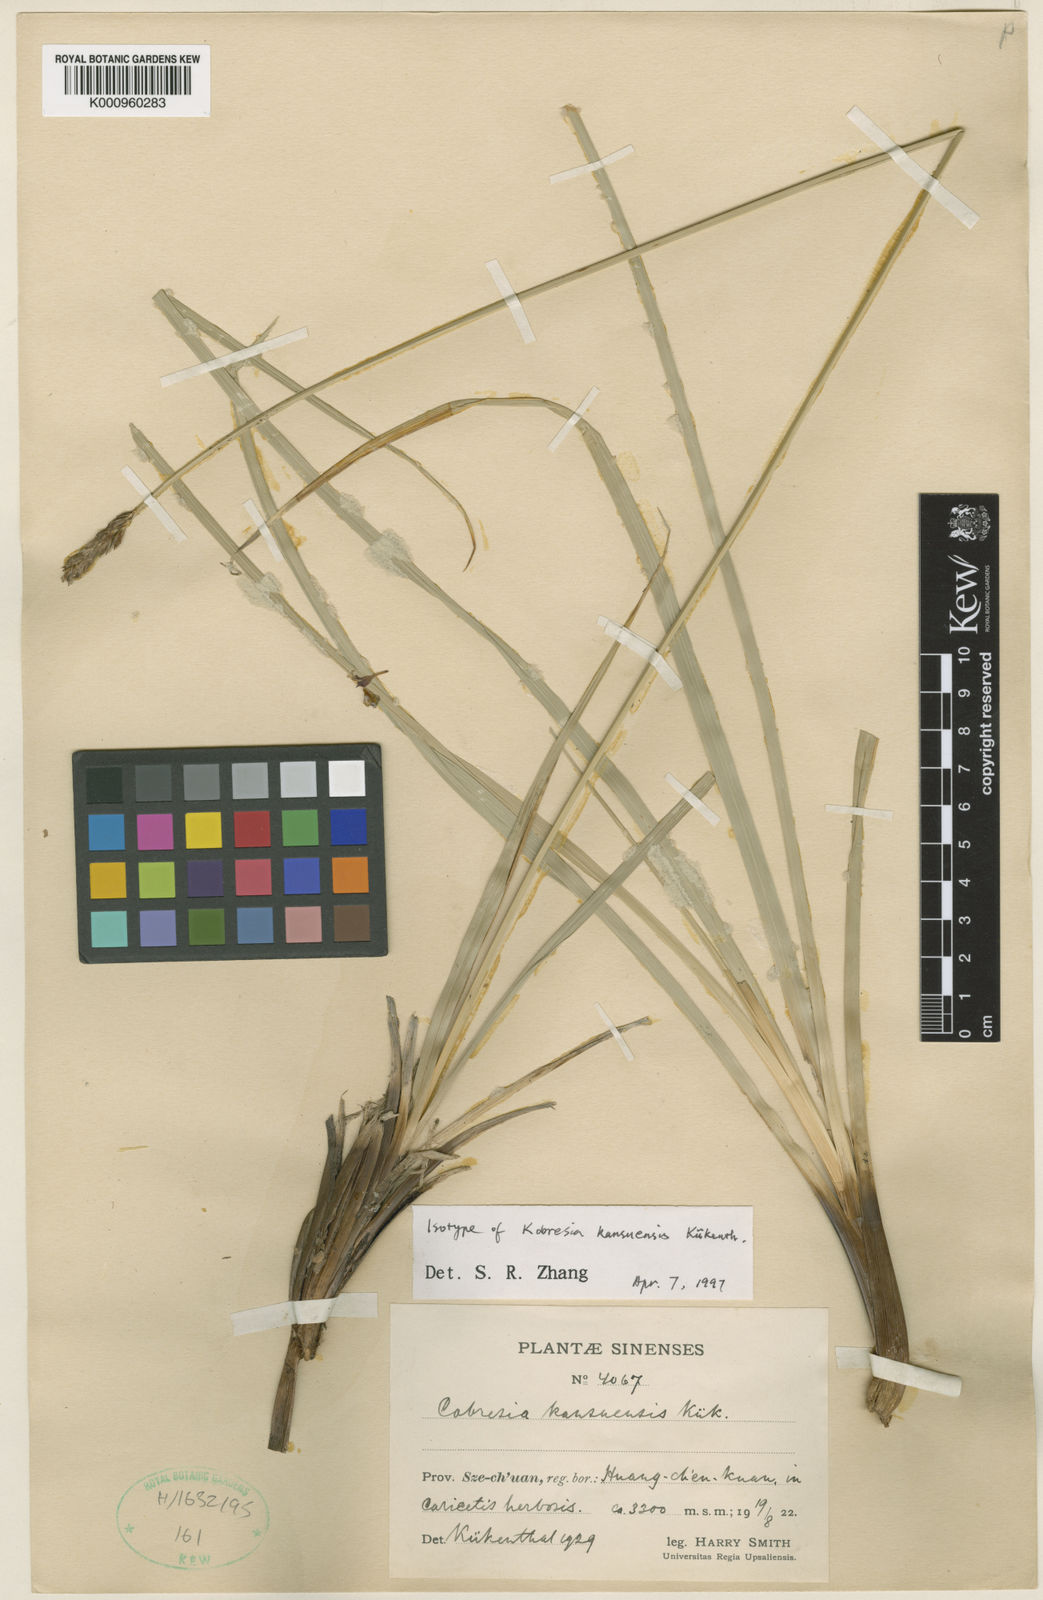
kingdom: Plantae
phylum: Tracheophyta
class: Liliopsida
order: Poales
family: Cyperaceae
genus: Carex
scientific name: Carex
